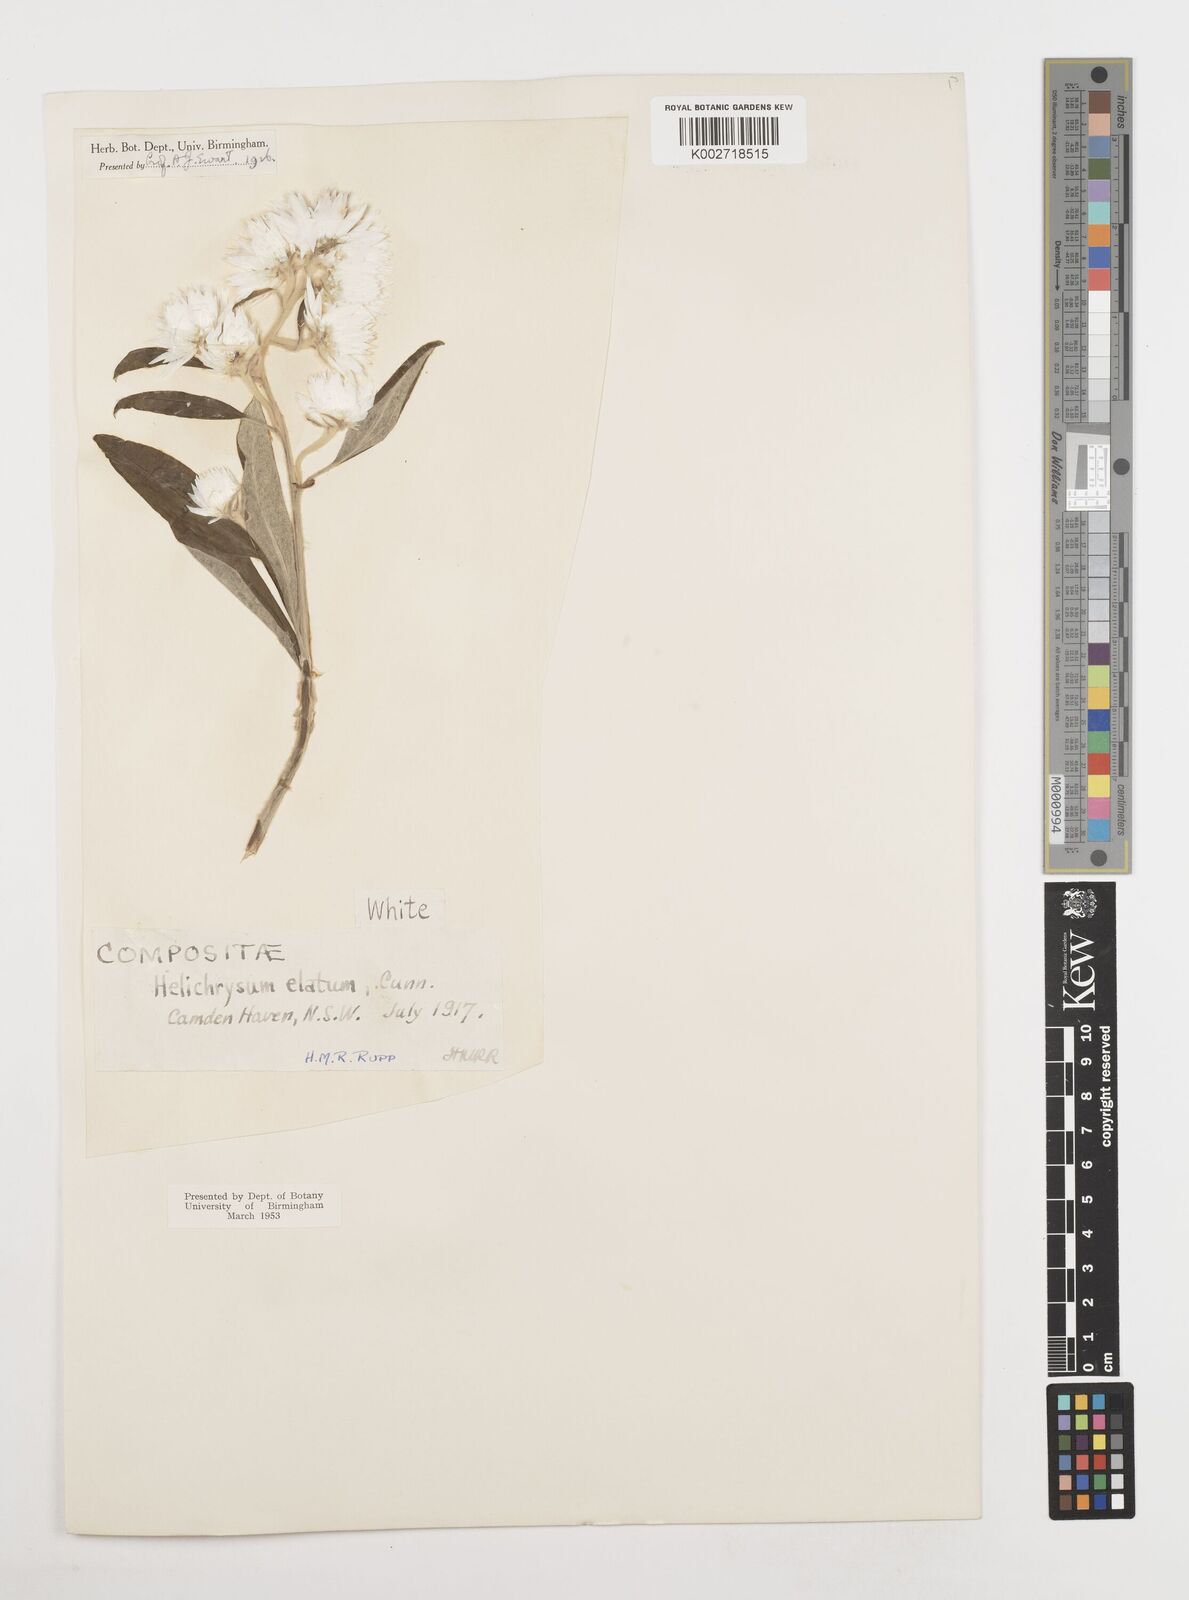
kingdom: Plantae
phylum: Tracheophyta
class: Magnoliopsida
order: Asterales
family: Asteraceae
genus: Leucozoma
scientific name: Leucozoma elatum
